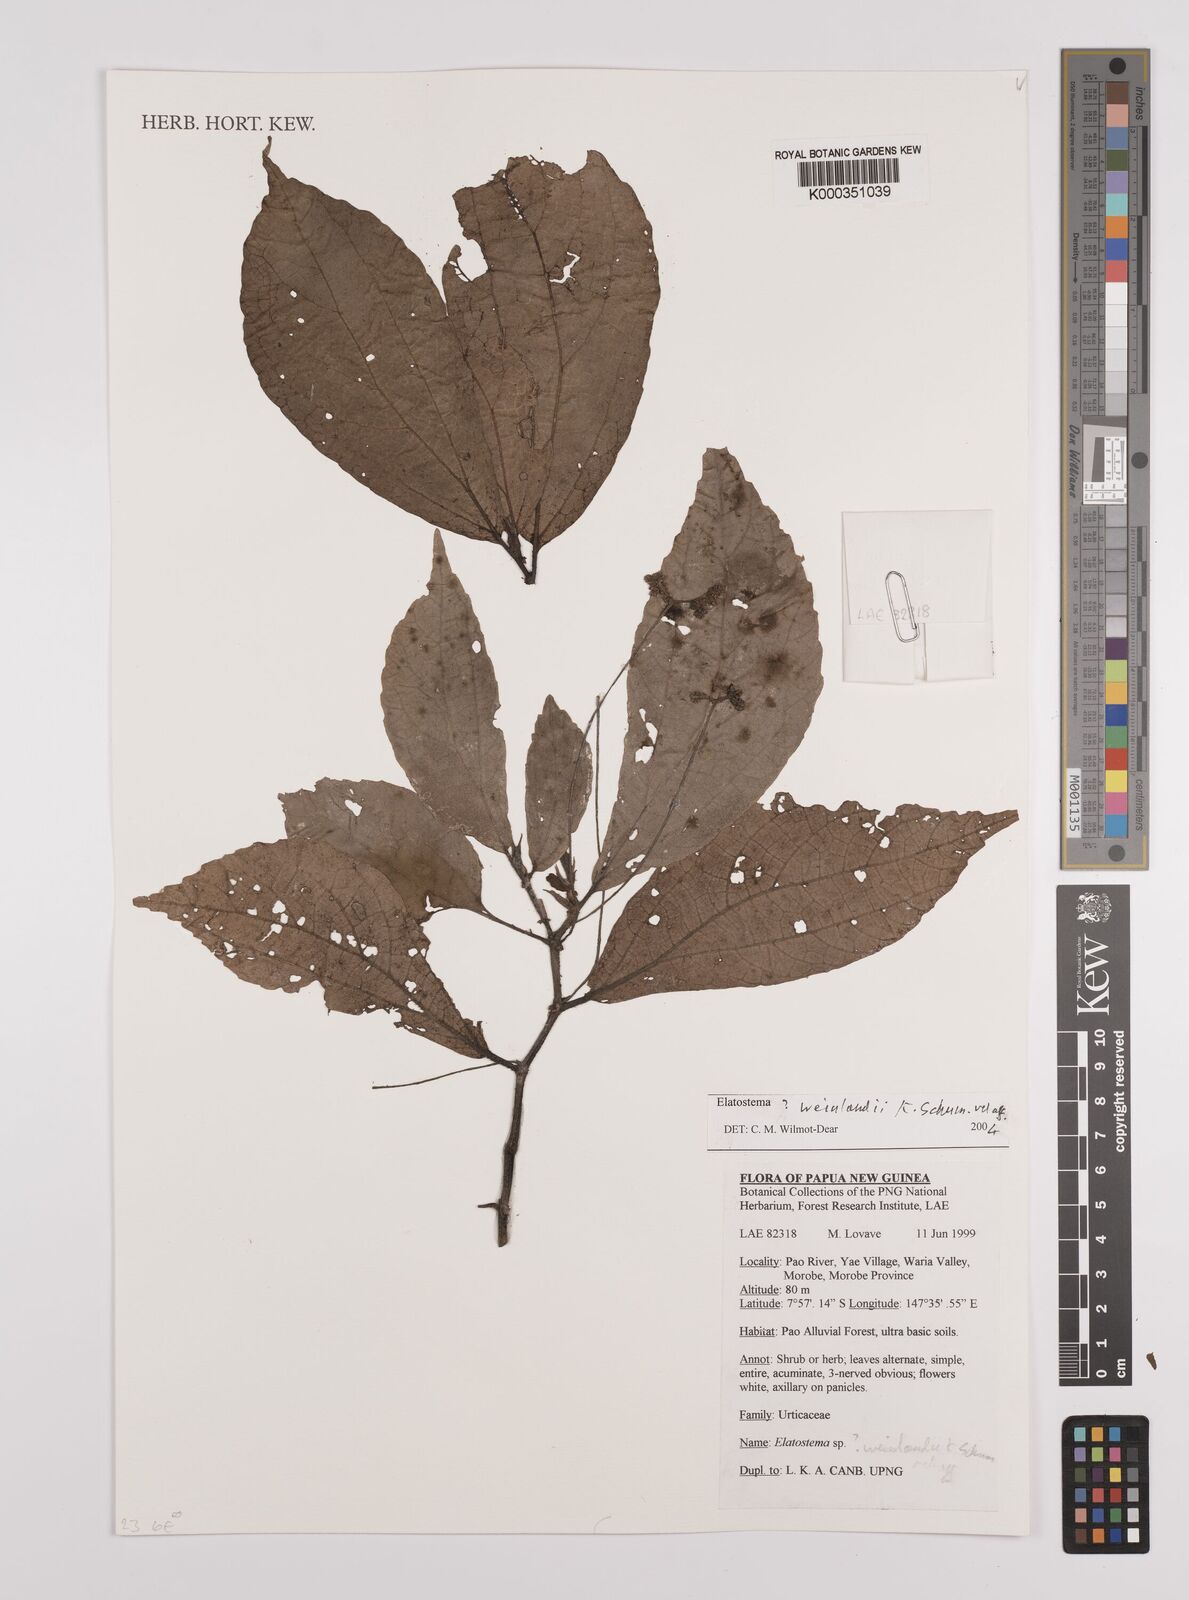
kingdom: Plantae
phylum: Tracheophyta
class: Magnoliopsida
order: Rosales
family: Urticaceae
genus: Elatostema
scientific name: Elatostema
